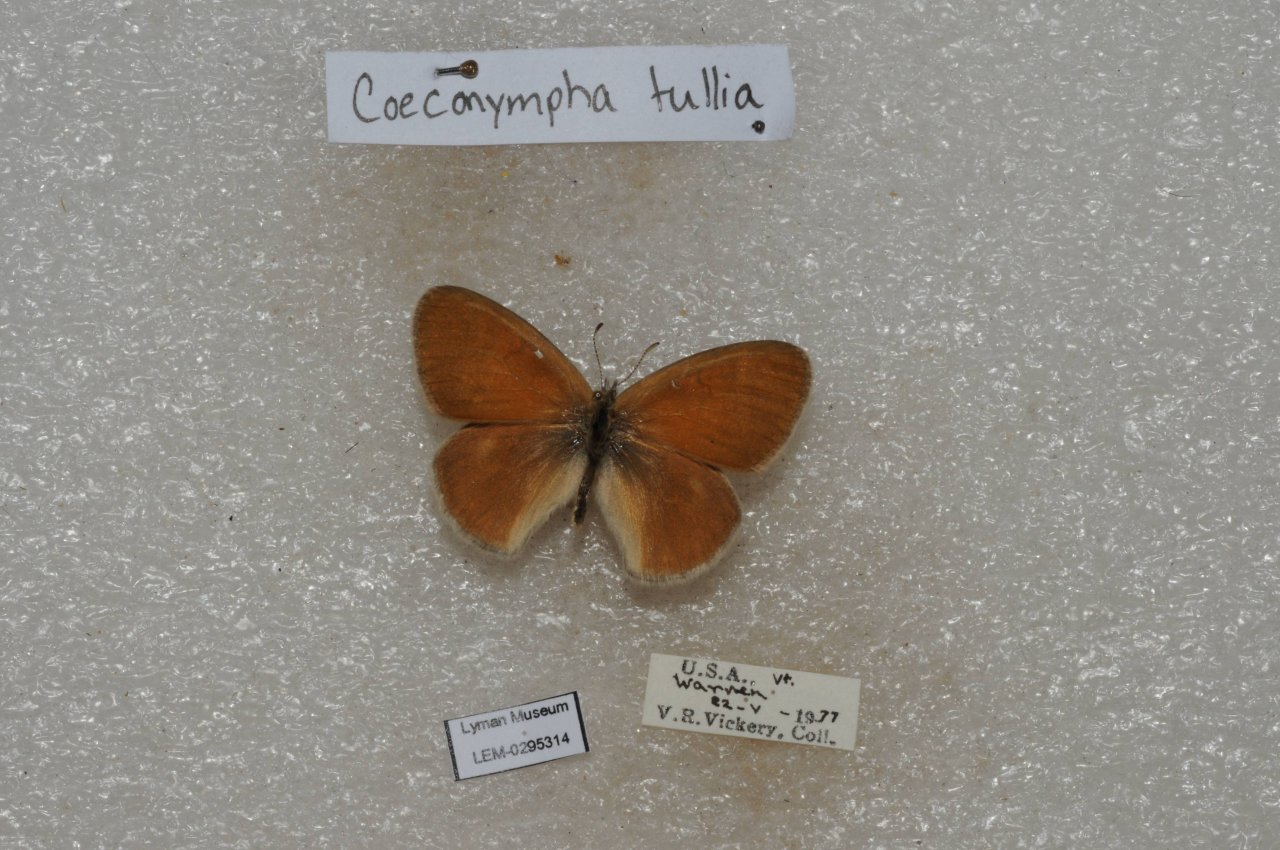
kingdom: Animalia
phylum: Arthropoda
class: Insecta
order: Lepidoptera
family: Nymphalidae
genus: Coenonympha
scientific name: Coenonympha tullia
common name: Large Heath
